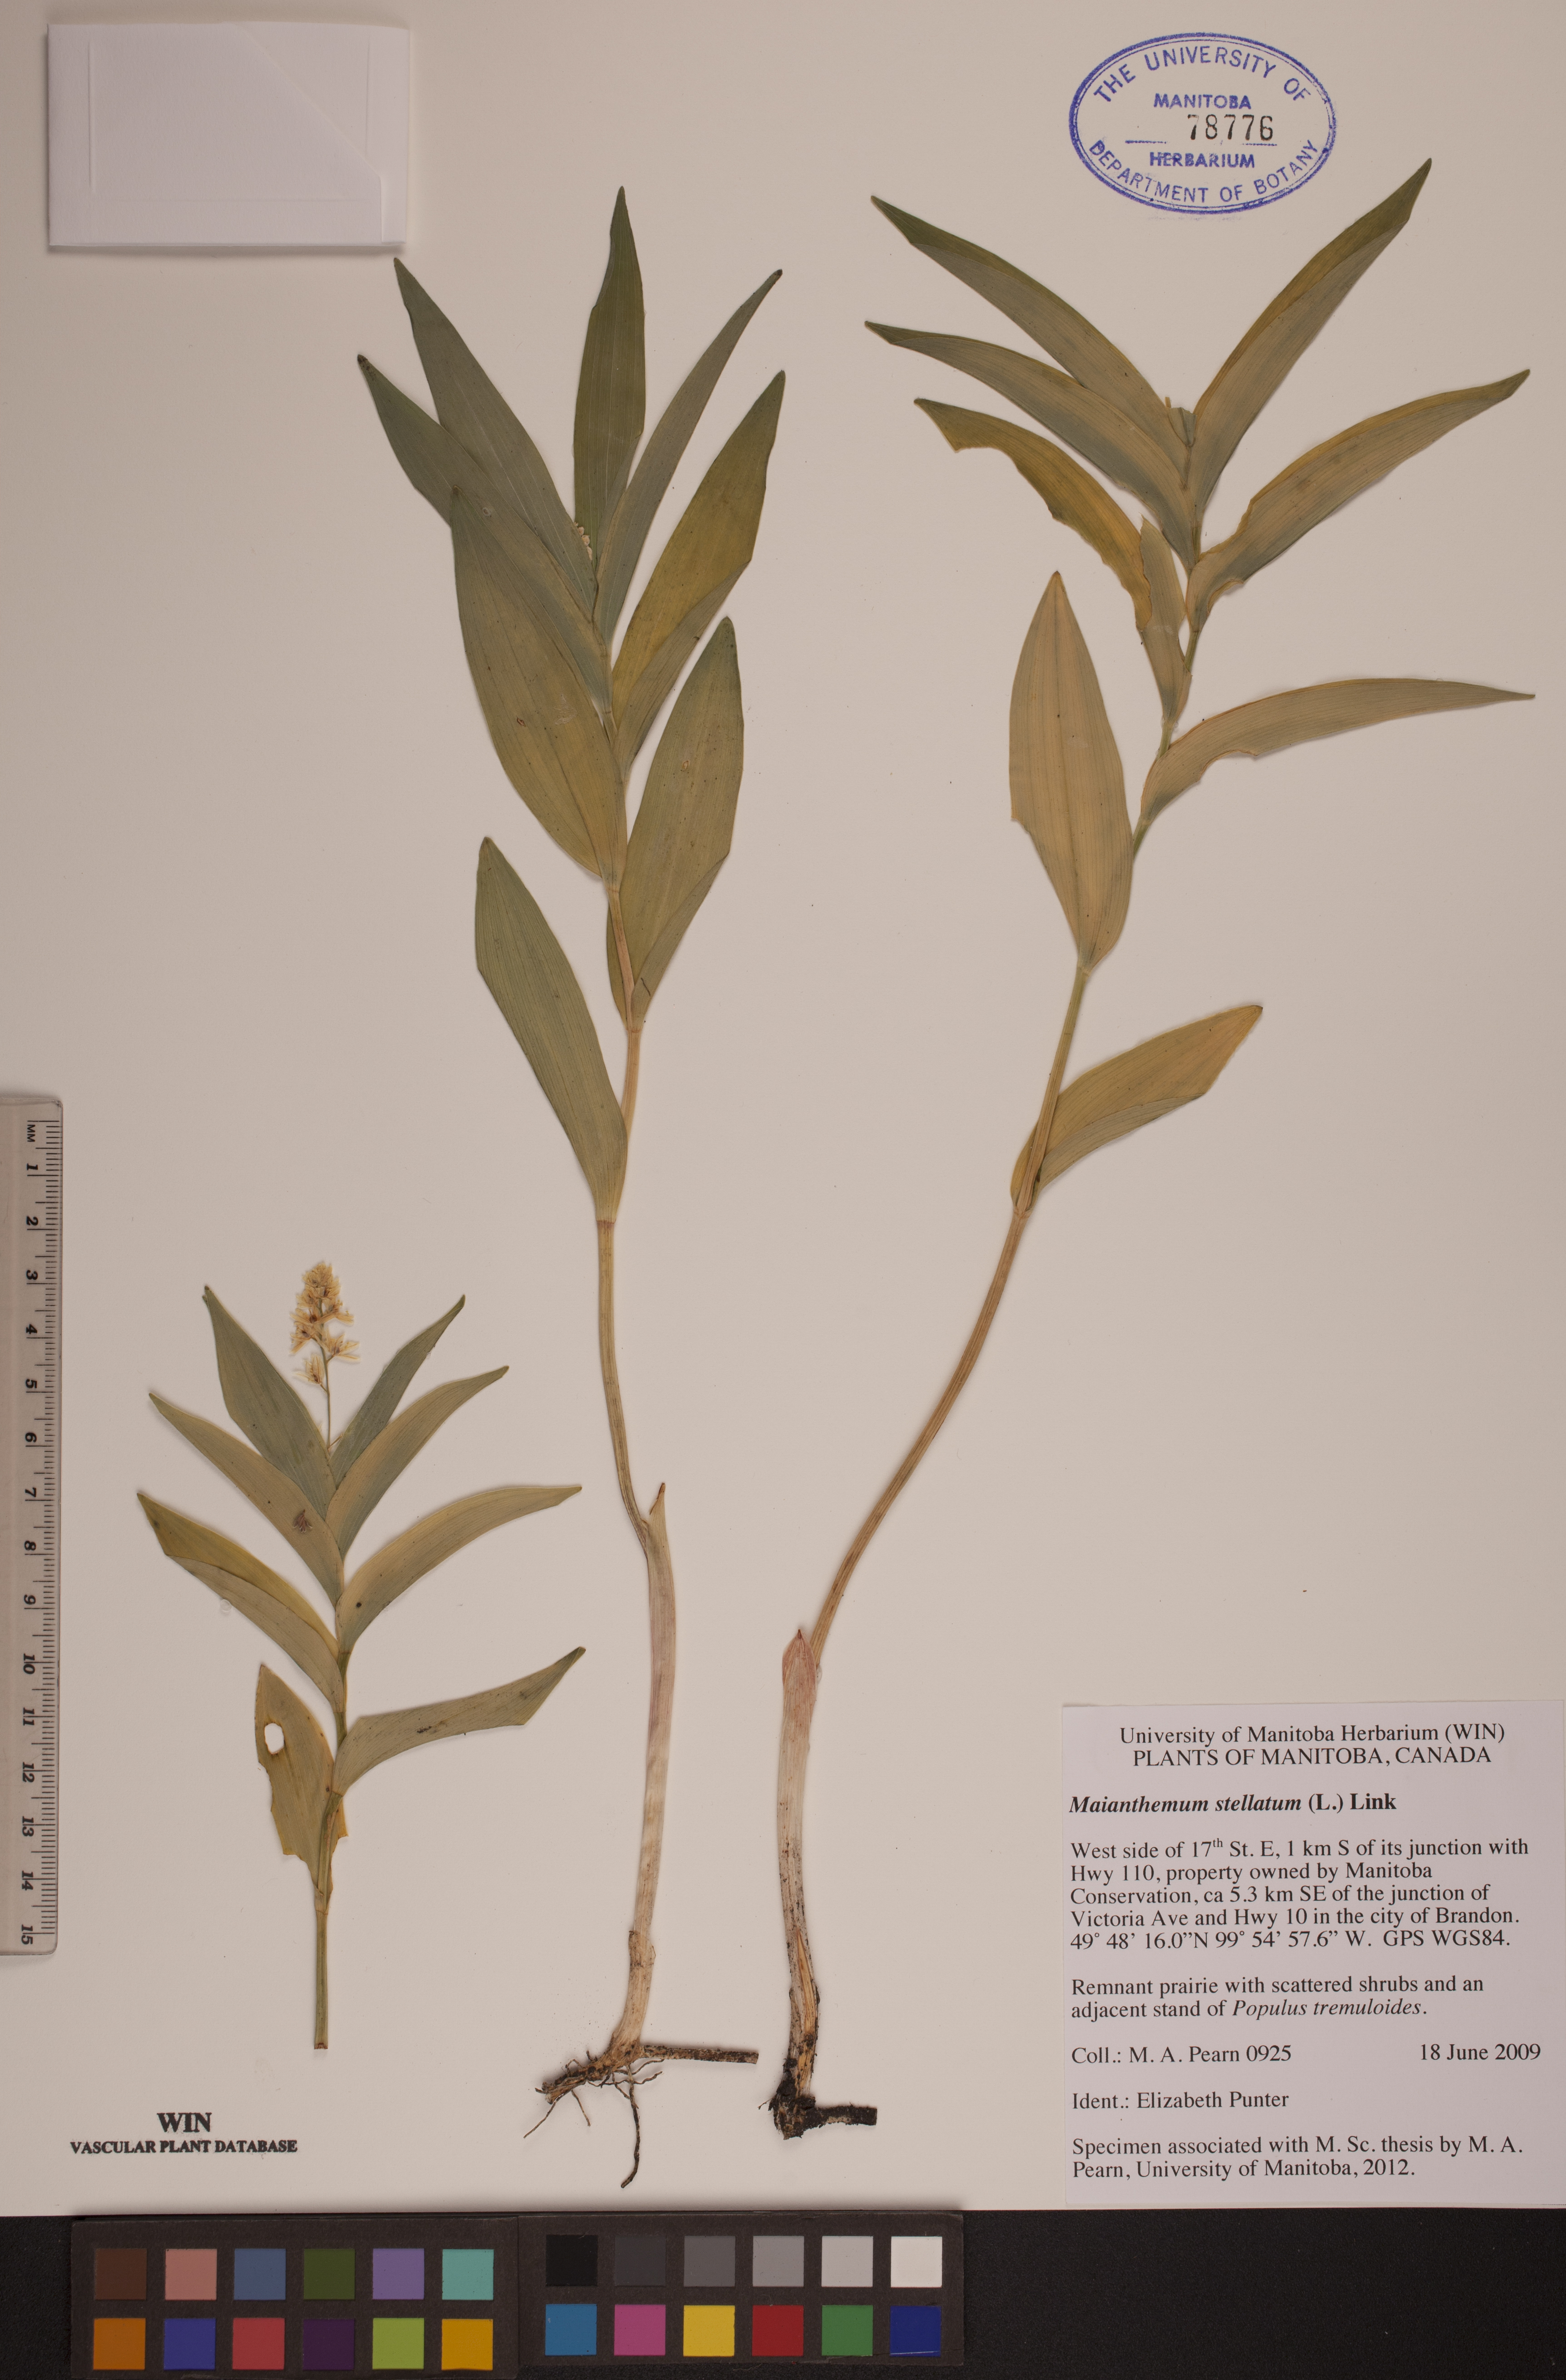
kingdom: Plantae
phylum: Tracheophyta
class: Liliopsida
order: Asparagales
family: Asparagaceae
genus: Maianthemum
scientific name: Maianthemum stellatum
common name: Little false solomon's seal
